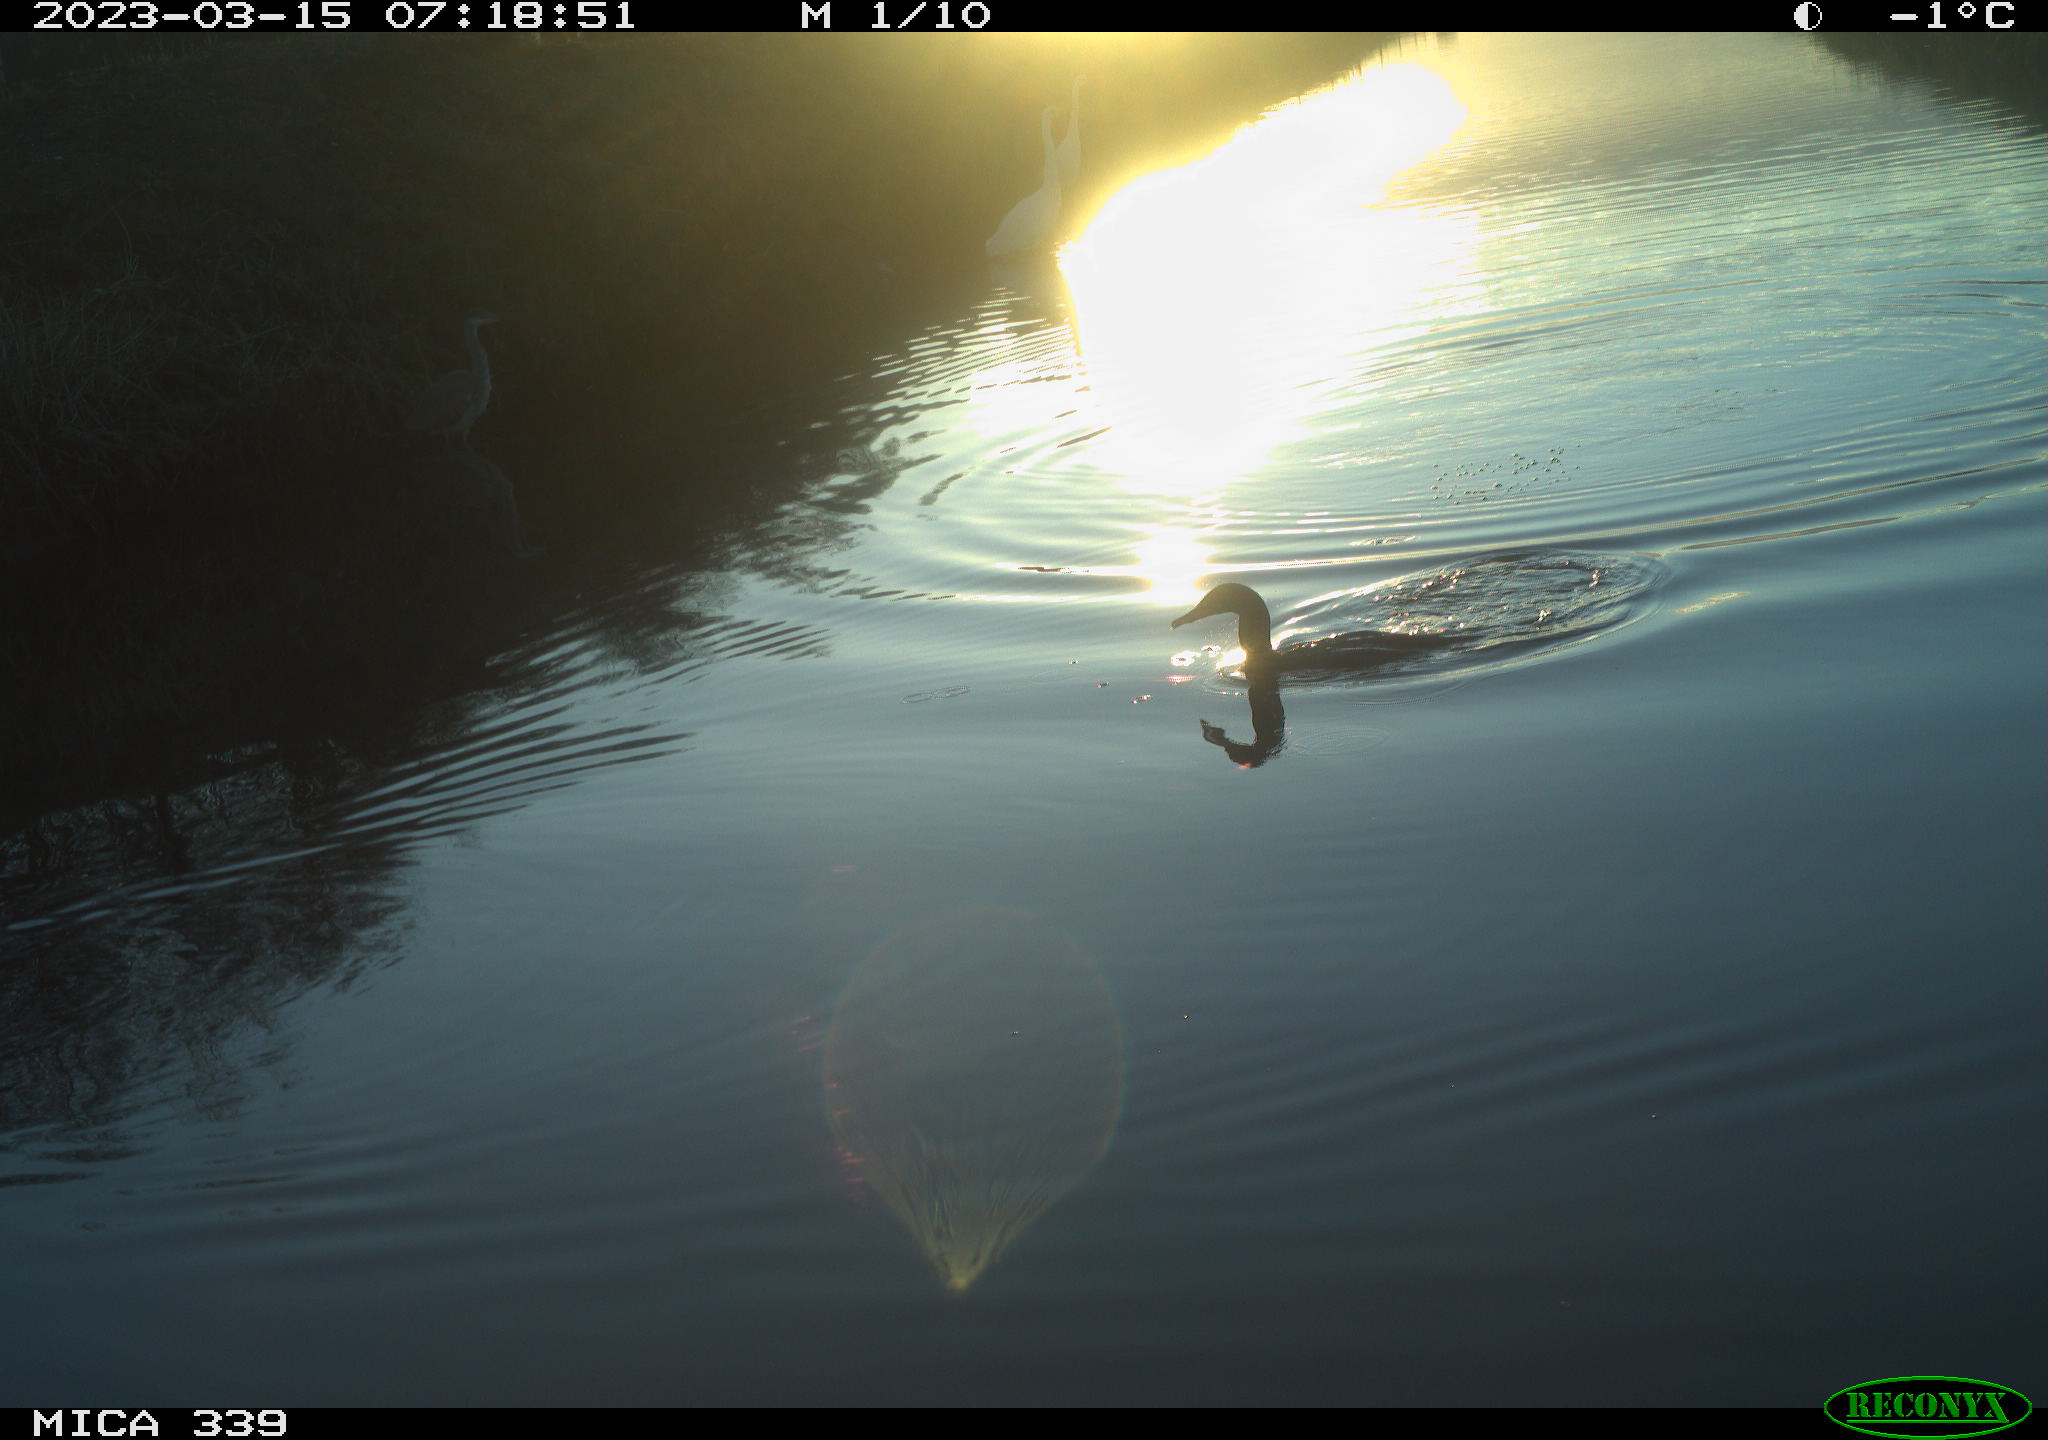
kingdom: Animalia
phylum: Chordata
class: Aves
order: Gruiformes
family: Rallidae
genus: Fulica
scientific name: Fulica atra
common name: Eurasian coot
